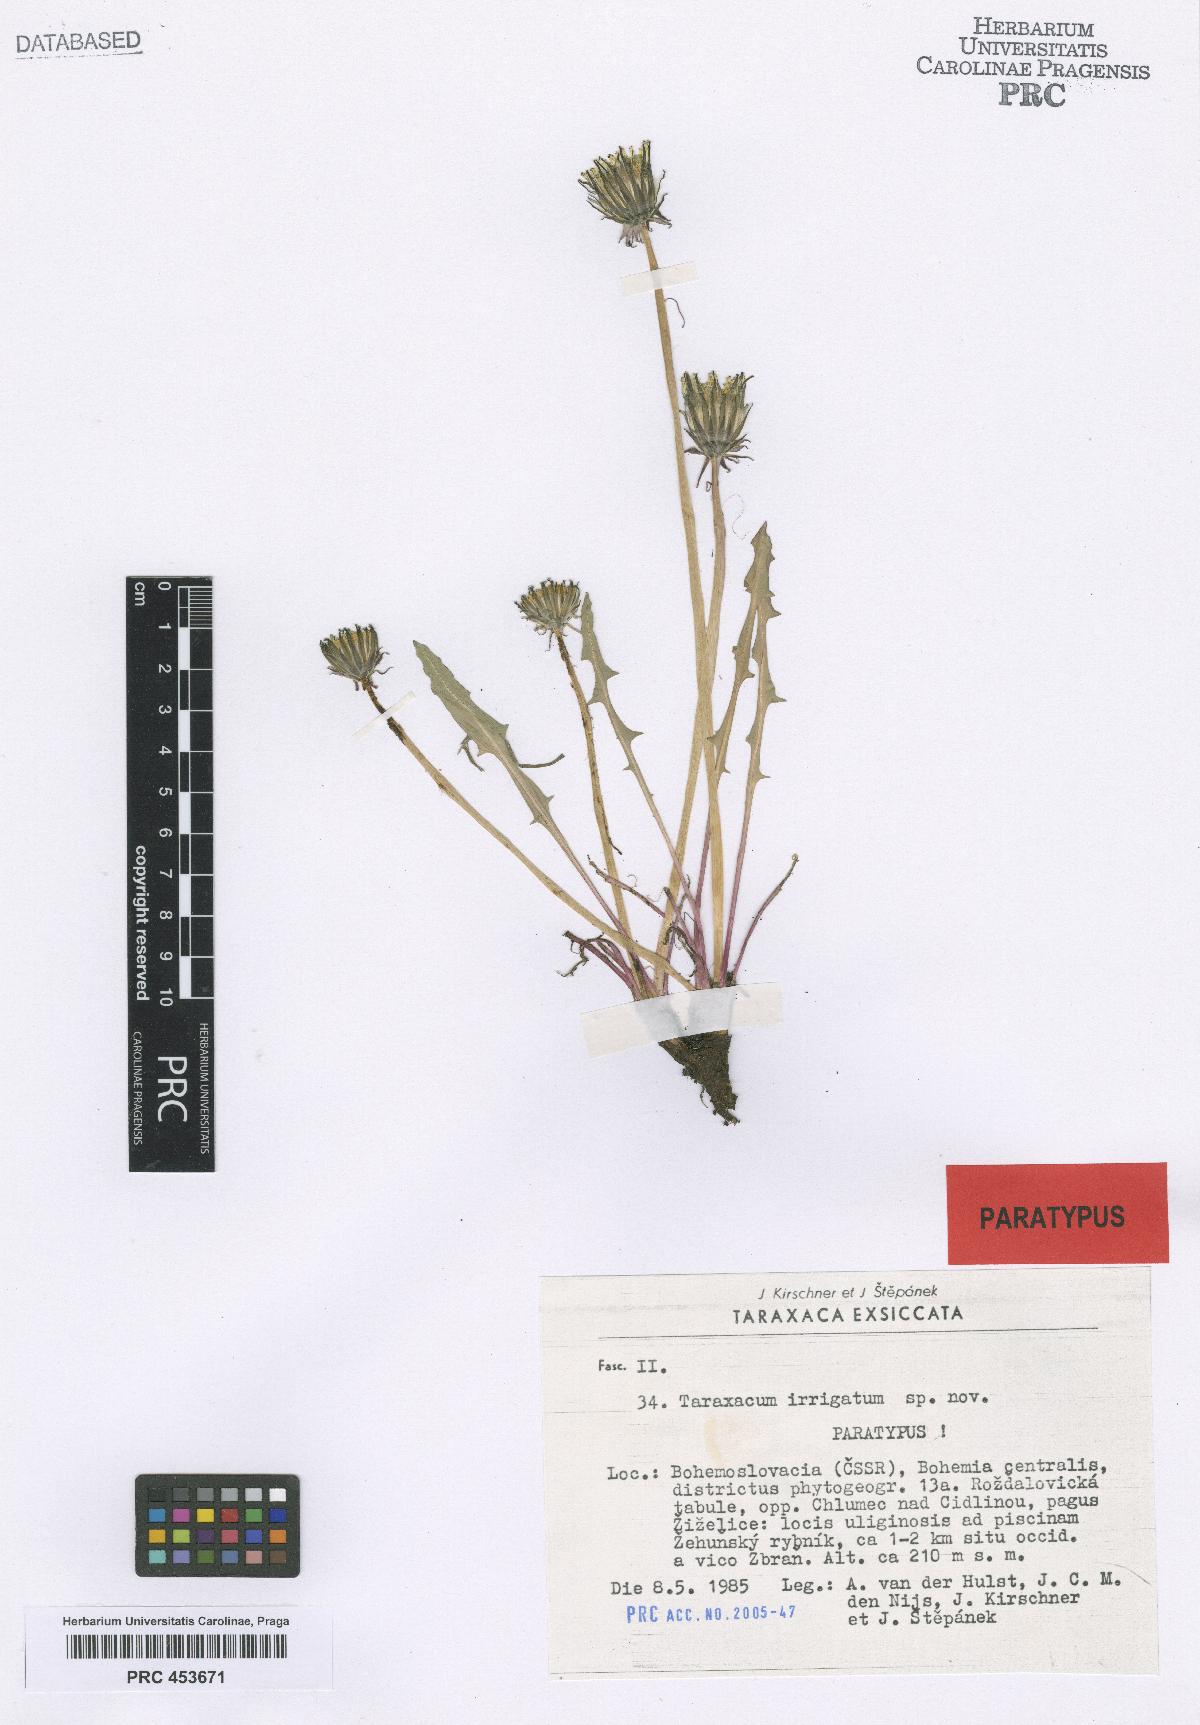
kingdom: Plantae
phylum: Tracheophyta
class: Magnoliopsida
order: Asterales
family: Asteraceae
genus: Taraxacum
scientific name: Taraxacum pseudopalustre
